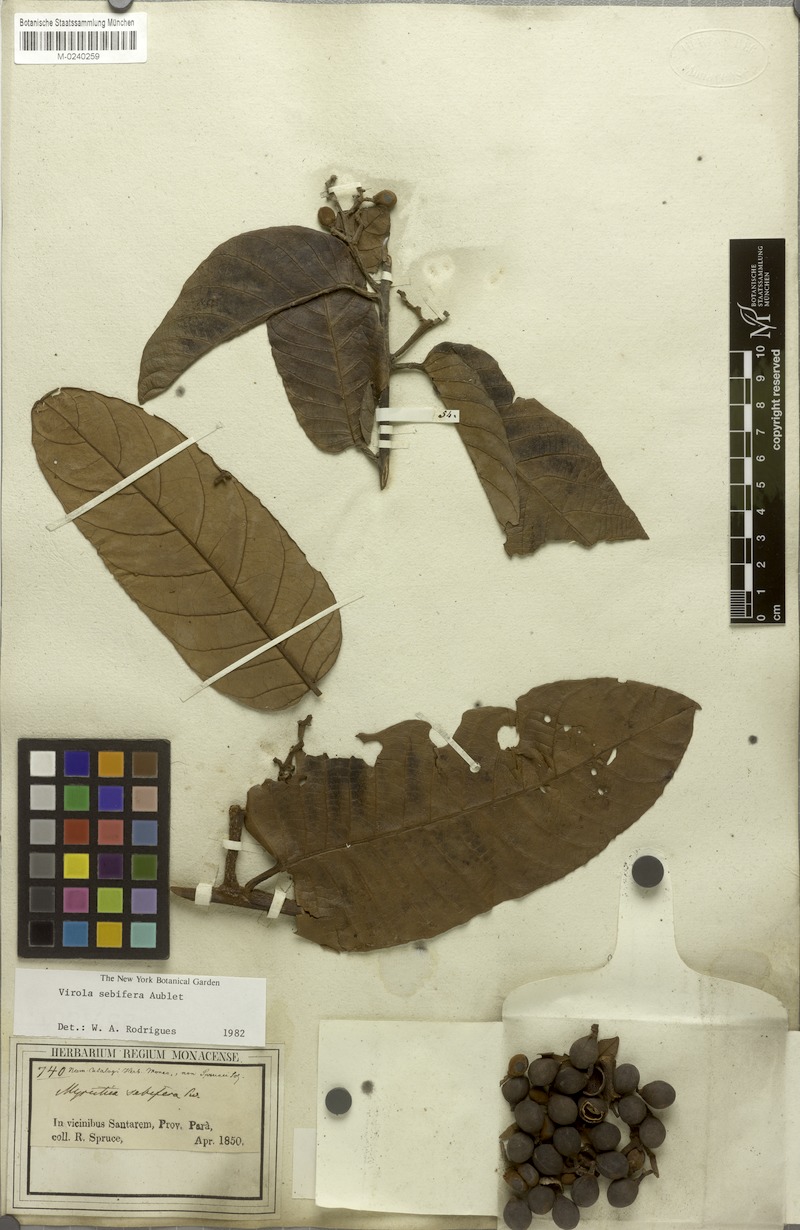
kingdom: Plantae
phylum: Tracheophyta
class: Magnoliopsida
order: Magnoliales
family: Myristicaceae
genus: Virola
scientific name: Virola sebifera
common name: Red ucuuba
